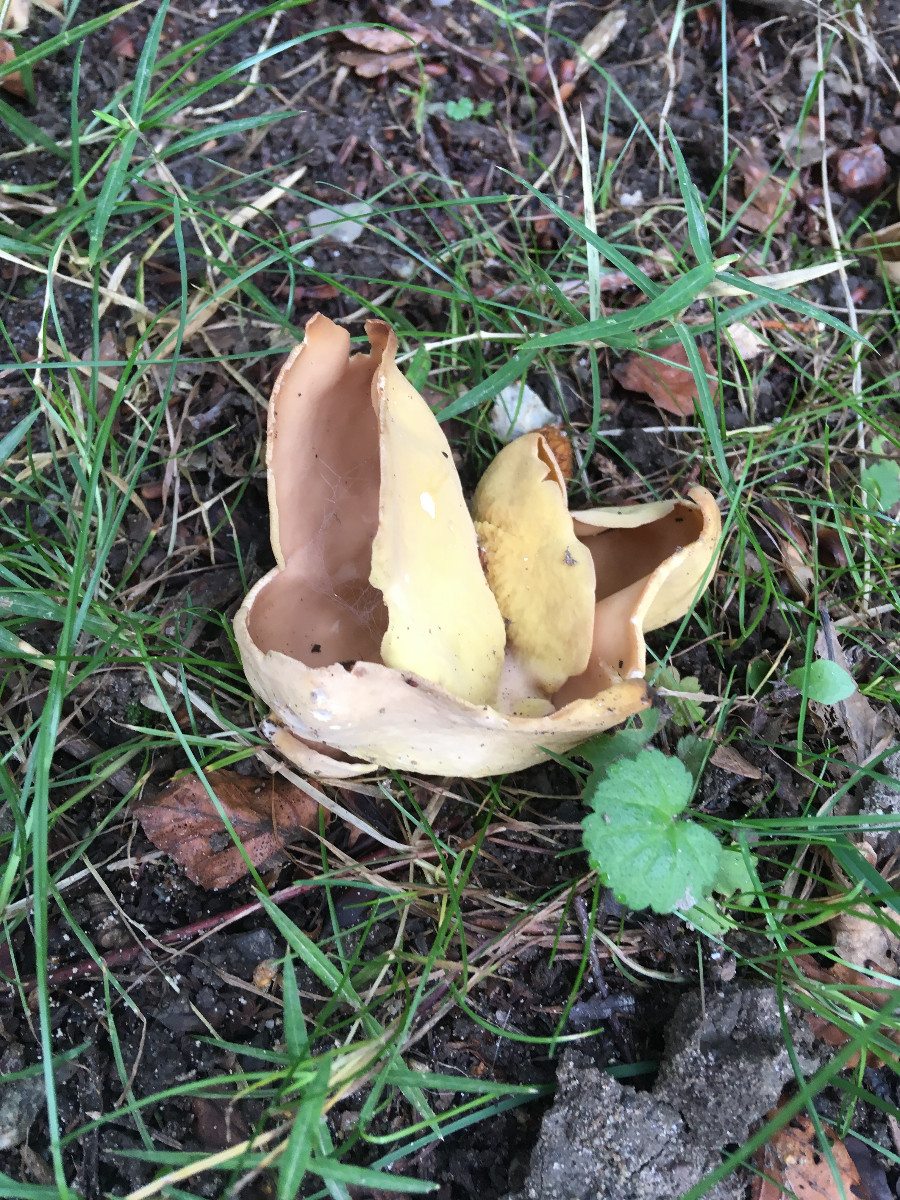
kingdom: Fungi
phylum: Ascomycota
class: Pezizomycetes
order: Pezizales
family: Otideaceae
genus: Otidea
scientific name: Otidea
